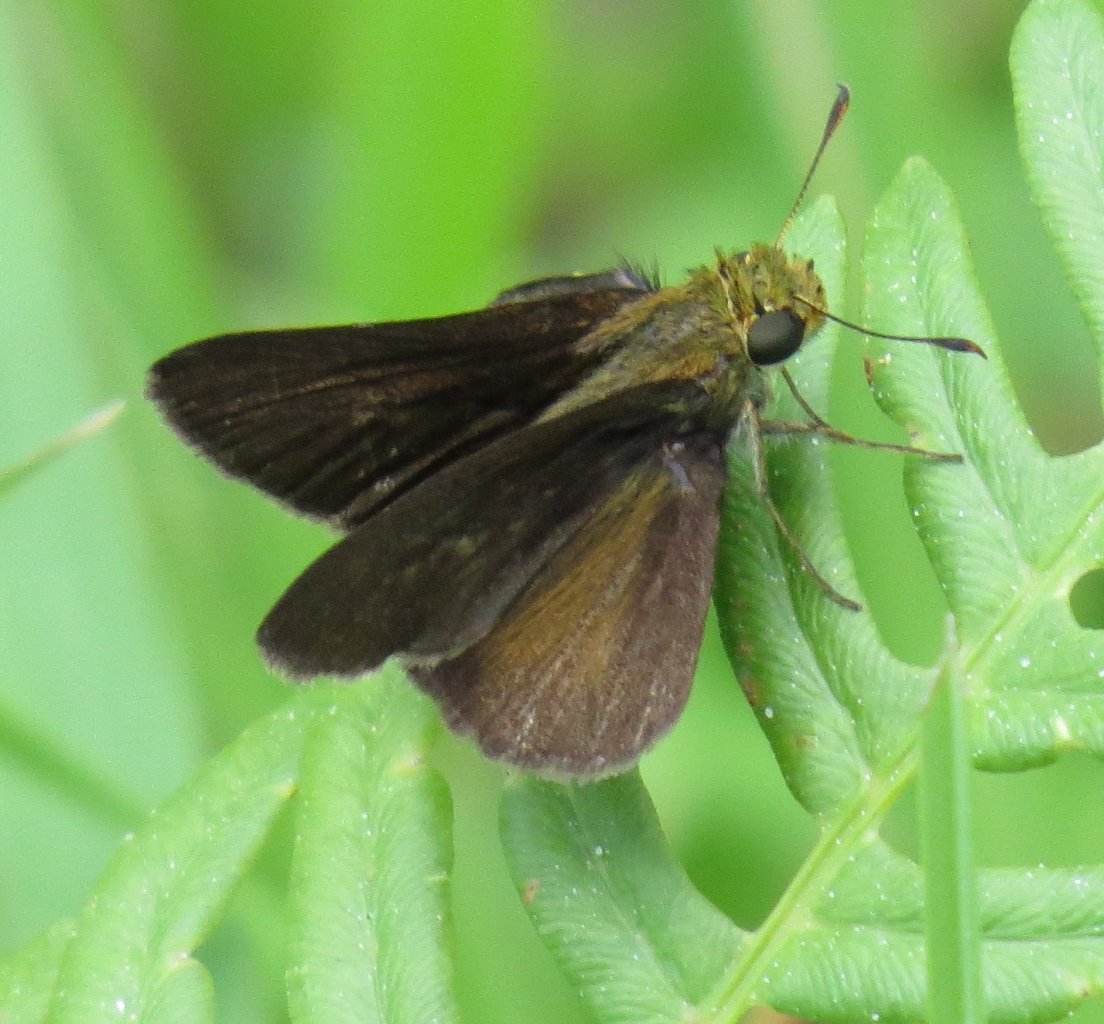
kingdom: Animalia
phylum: Arthropoda
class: Insecta
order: Lepidoptera
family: Hesperiidae
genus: Euphyes
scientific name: Euphyes vestris
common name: Dun Skipper
